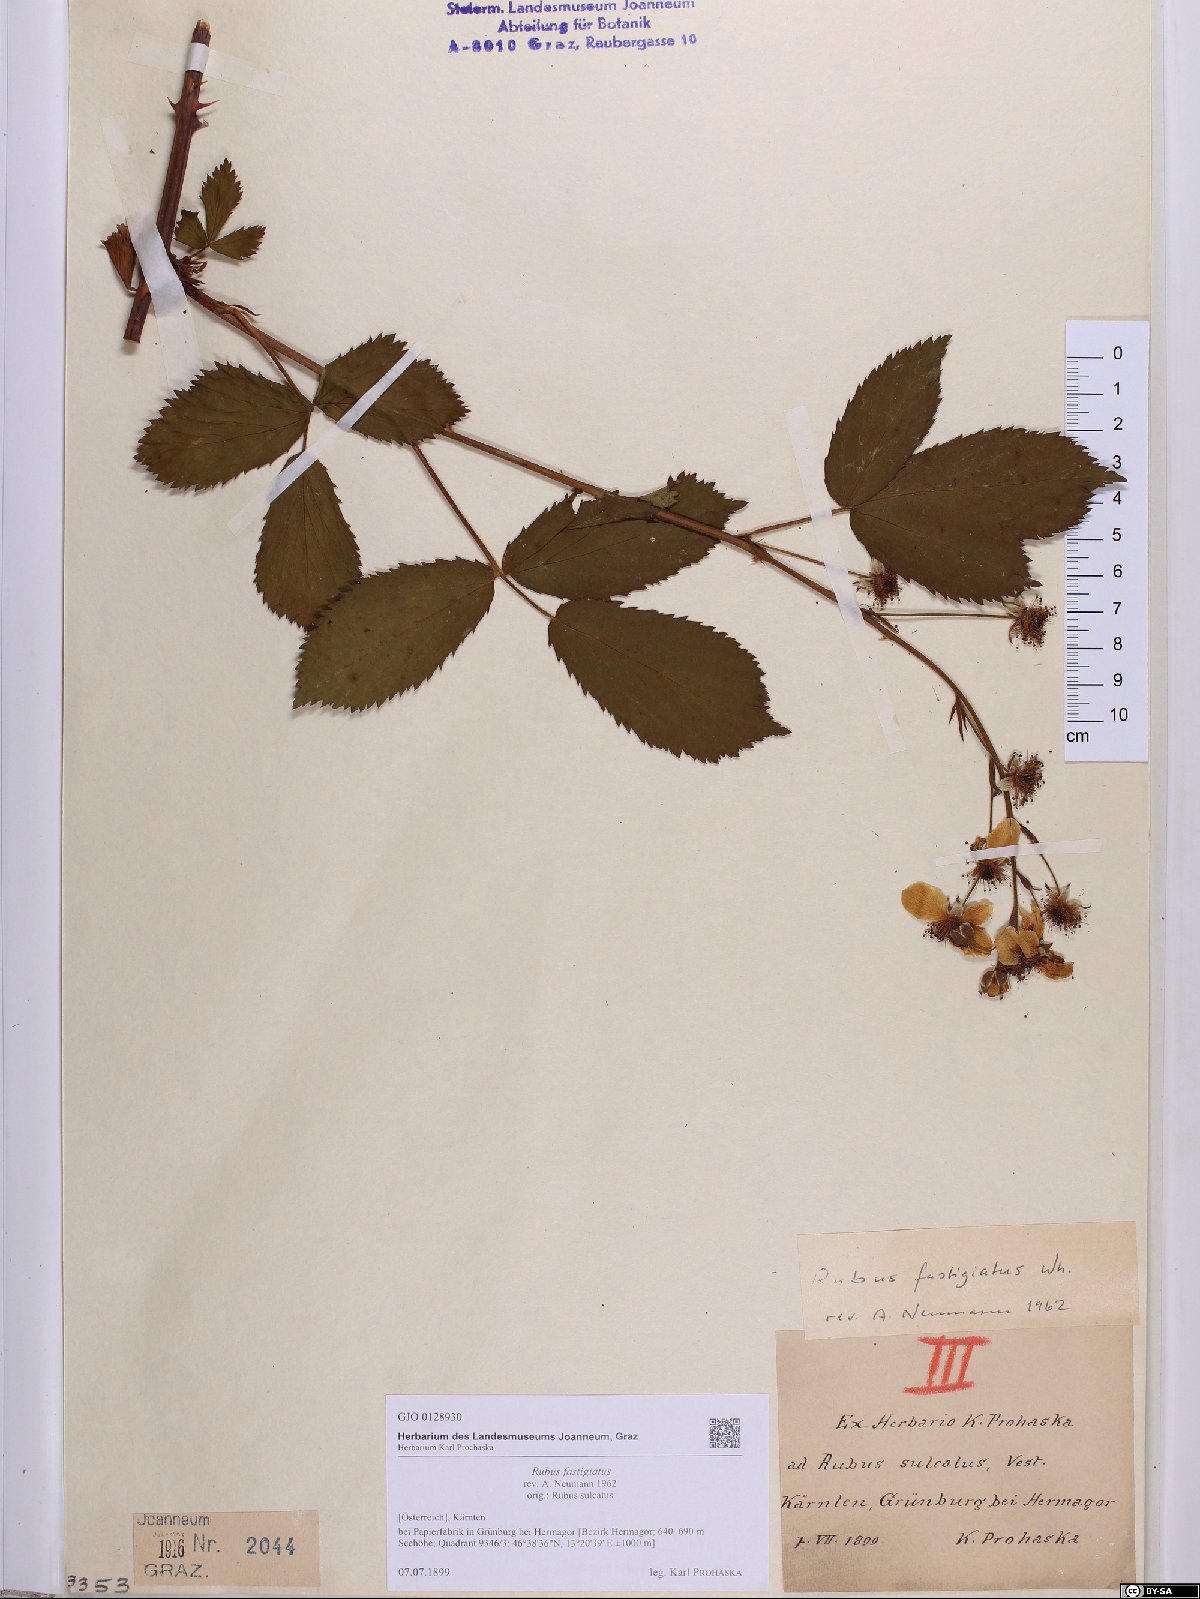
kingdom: Plantae
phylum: Tracheophyta
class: Magnoliopsida
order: Rosales
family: Rosaceae
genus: Rubus
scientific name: Rubus polonicus
